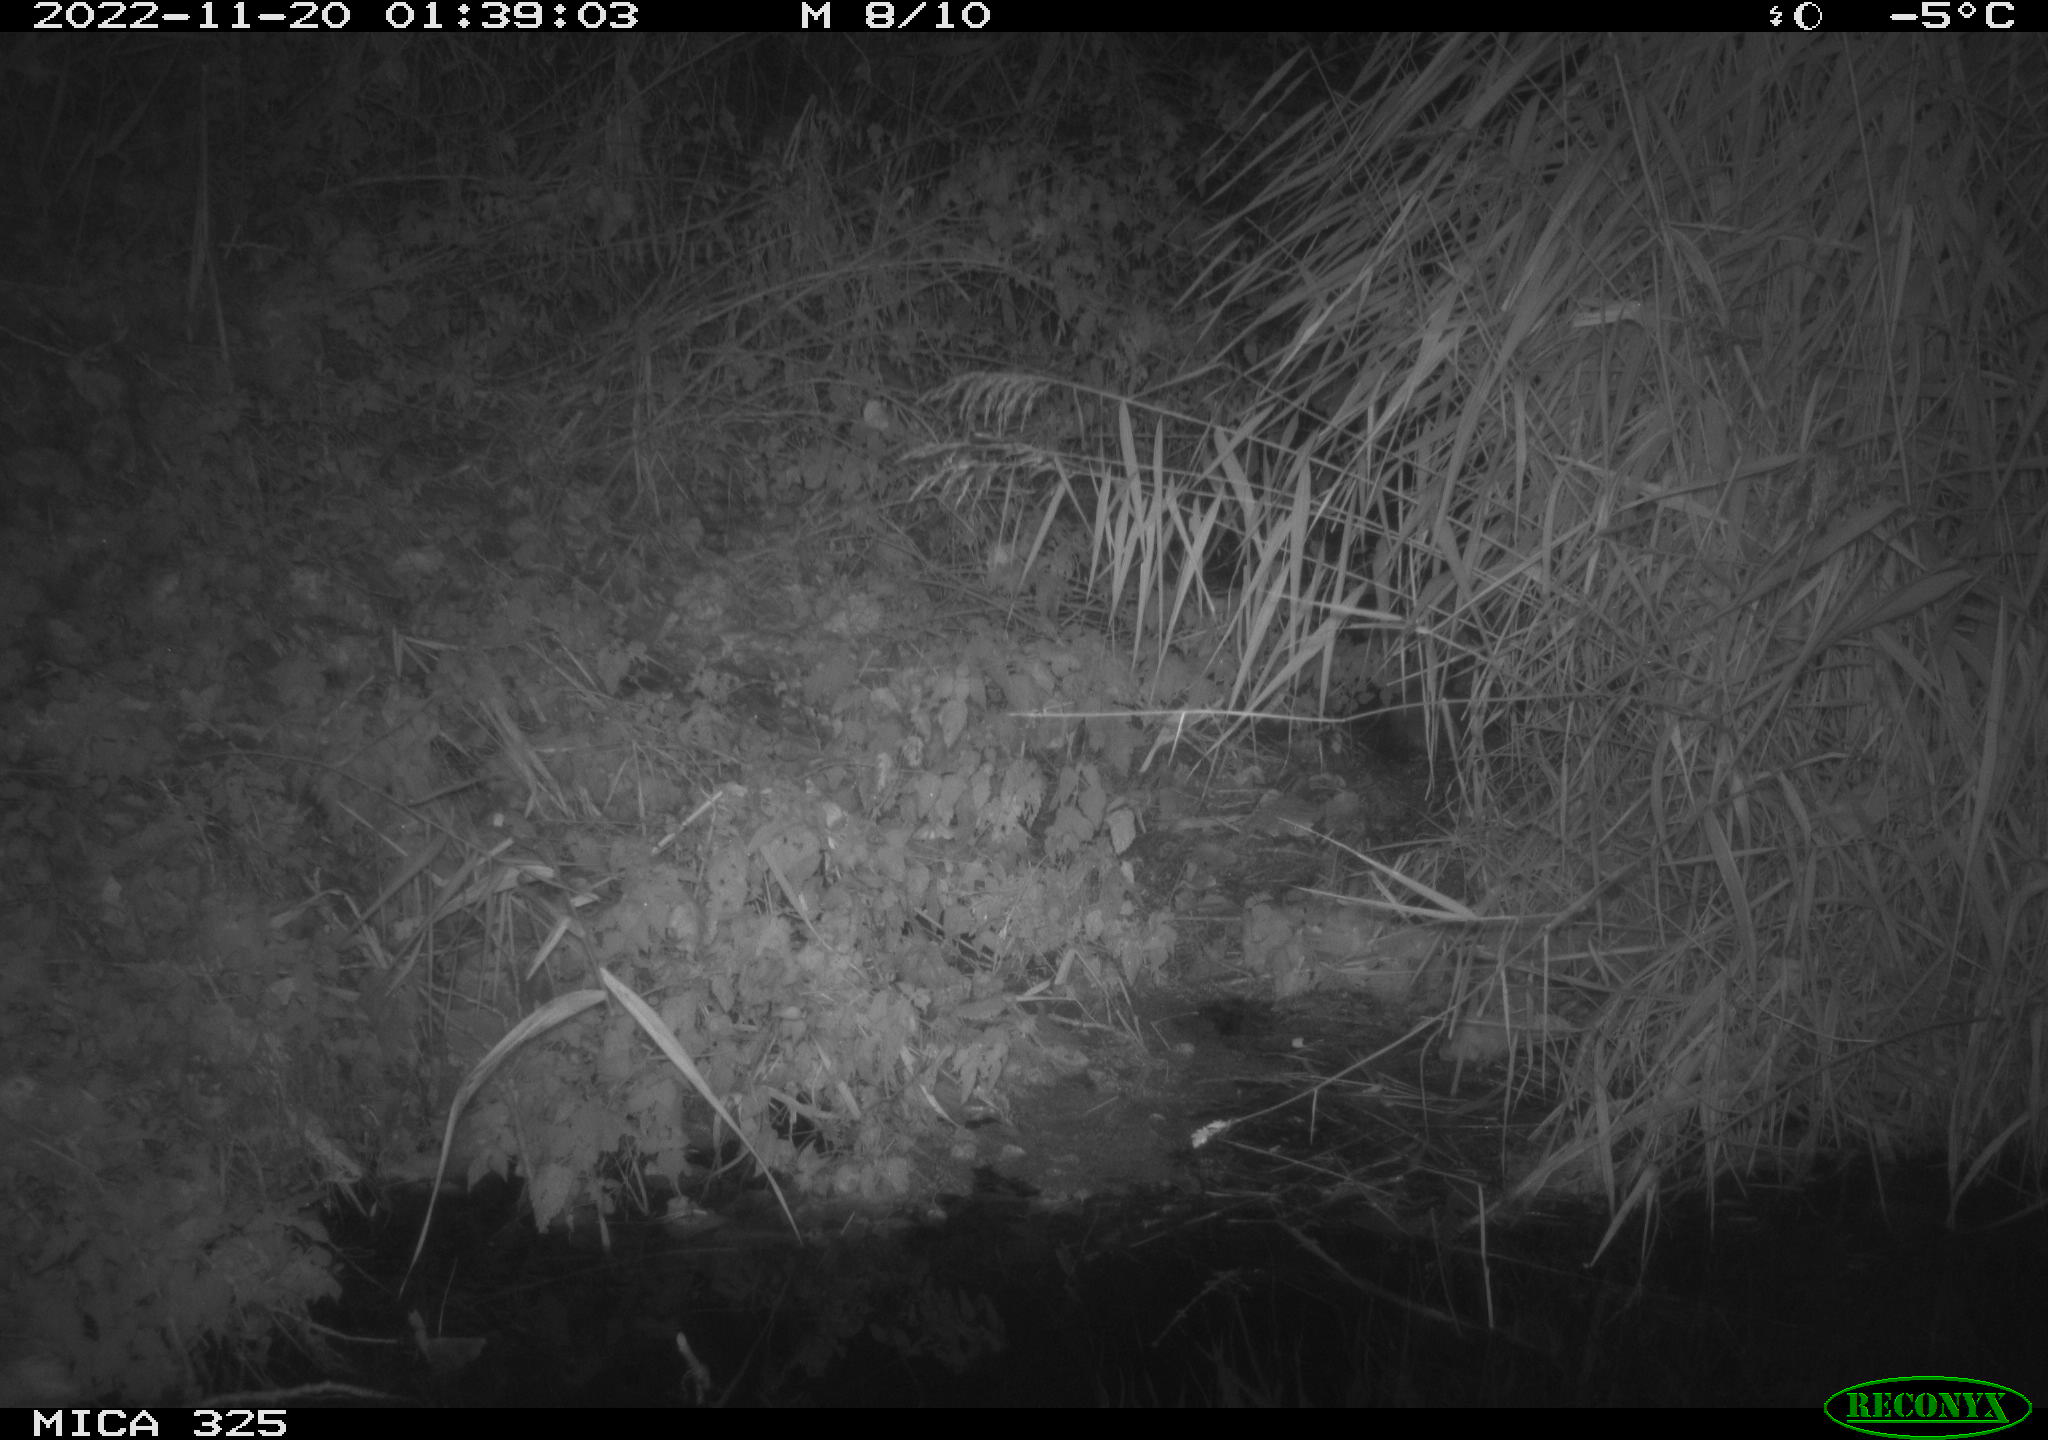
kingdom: Animalia
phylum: Chordata
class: Mammalia
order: Rodentia
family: Muridae
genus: Rattus
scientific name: Rattus norvegicus
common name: Brown rat
